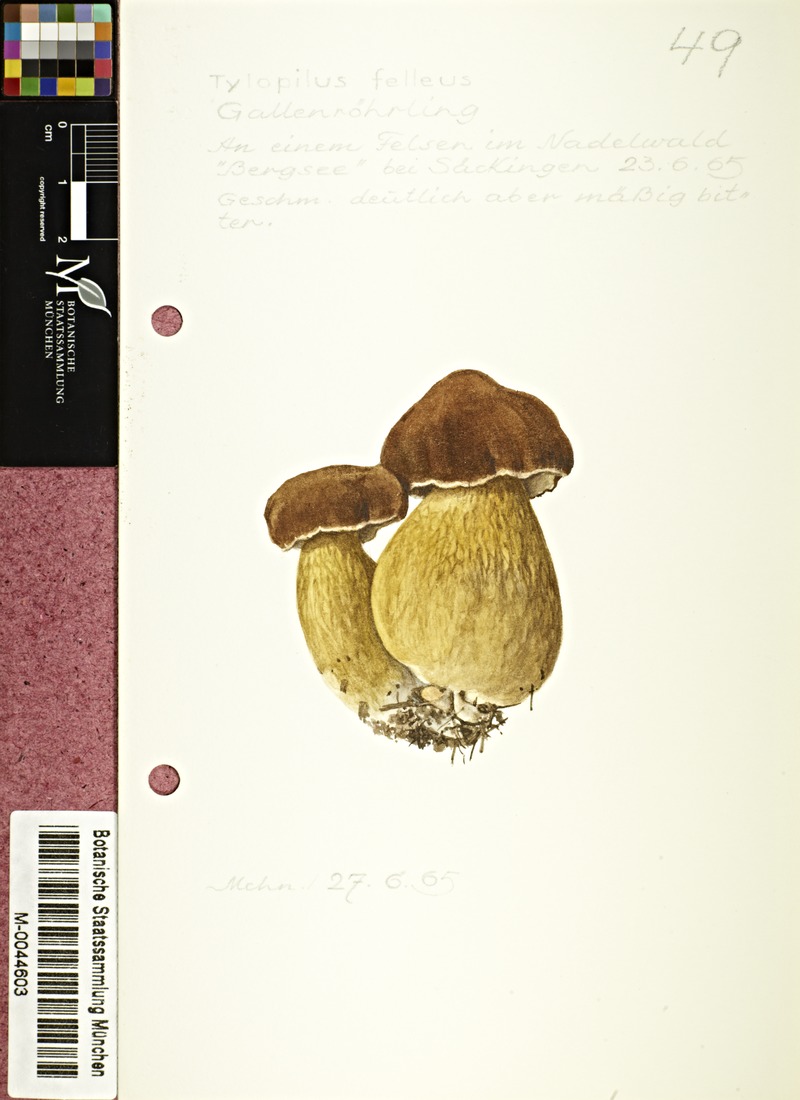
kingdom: Fungi
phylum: Basidiomycota
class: Agaricomycetes
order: Boletales
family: Boletaceae
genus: Tylopilus
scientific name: Tylopilus felleus
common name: Bitter bolete
